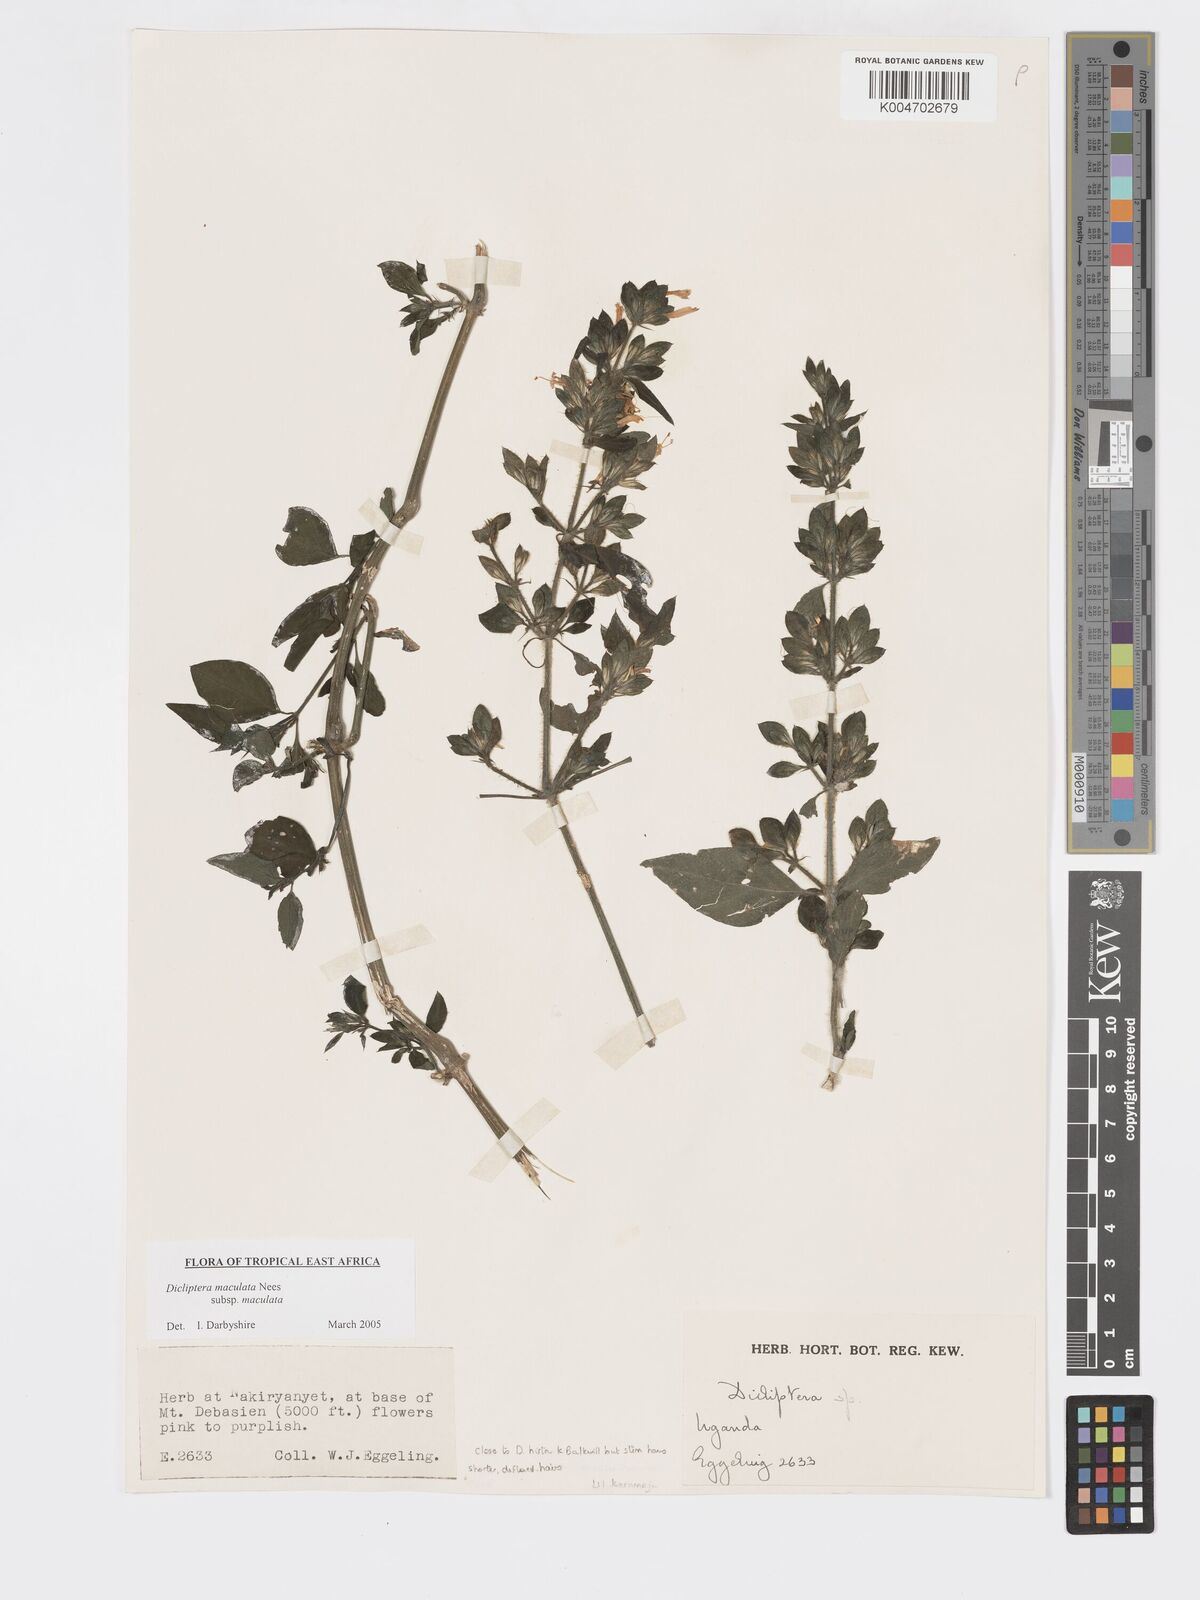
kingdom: Plantae
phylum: Tracheophyta
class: Magnoliopsida
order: Lamiales
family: Acanthaceae
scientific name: Acanthaceae
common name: Acanthaceae
